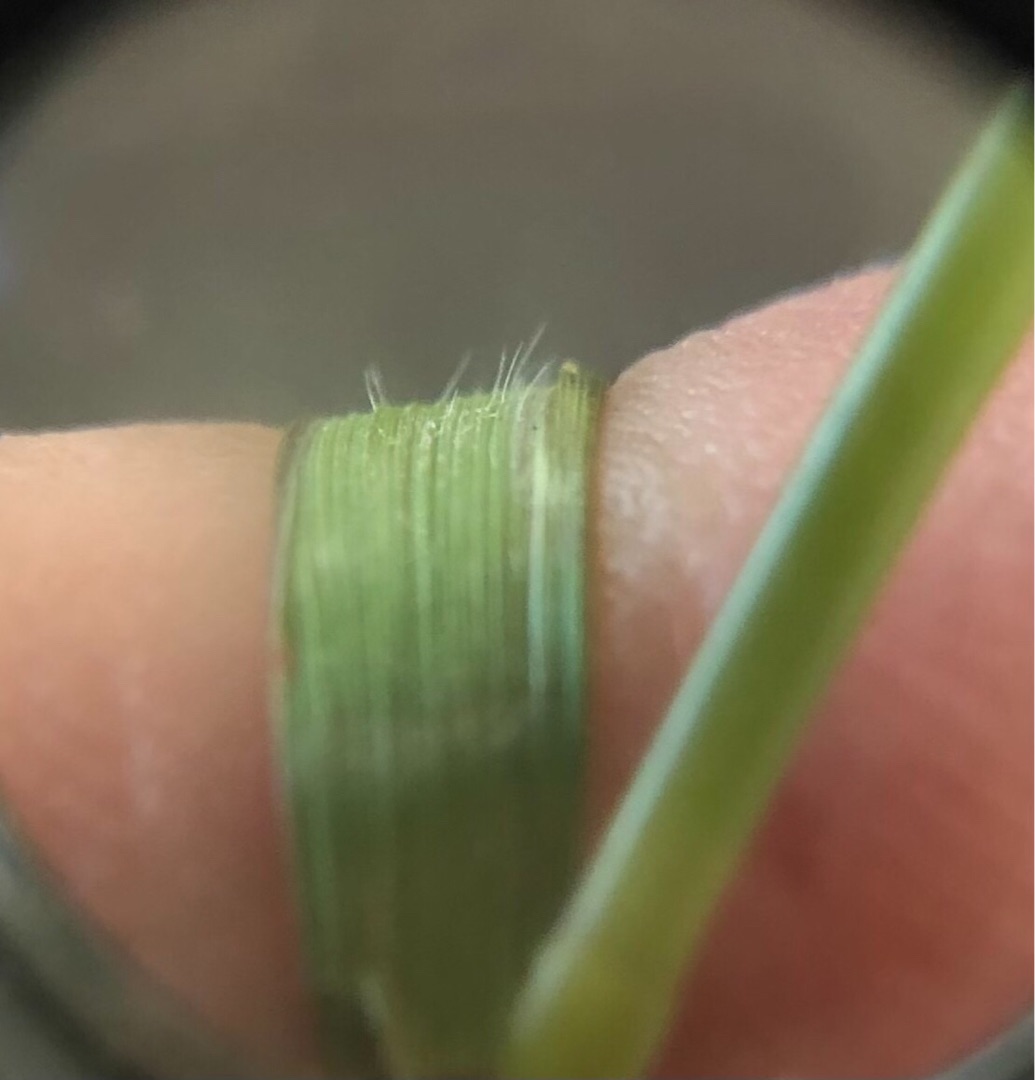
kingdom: Plantae
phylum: Tracheophyta
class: Liliopsida
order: Poales
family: Poaceae
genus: Elymus
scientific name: Elymus repens
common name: Almindelig kvik
